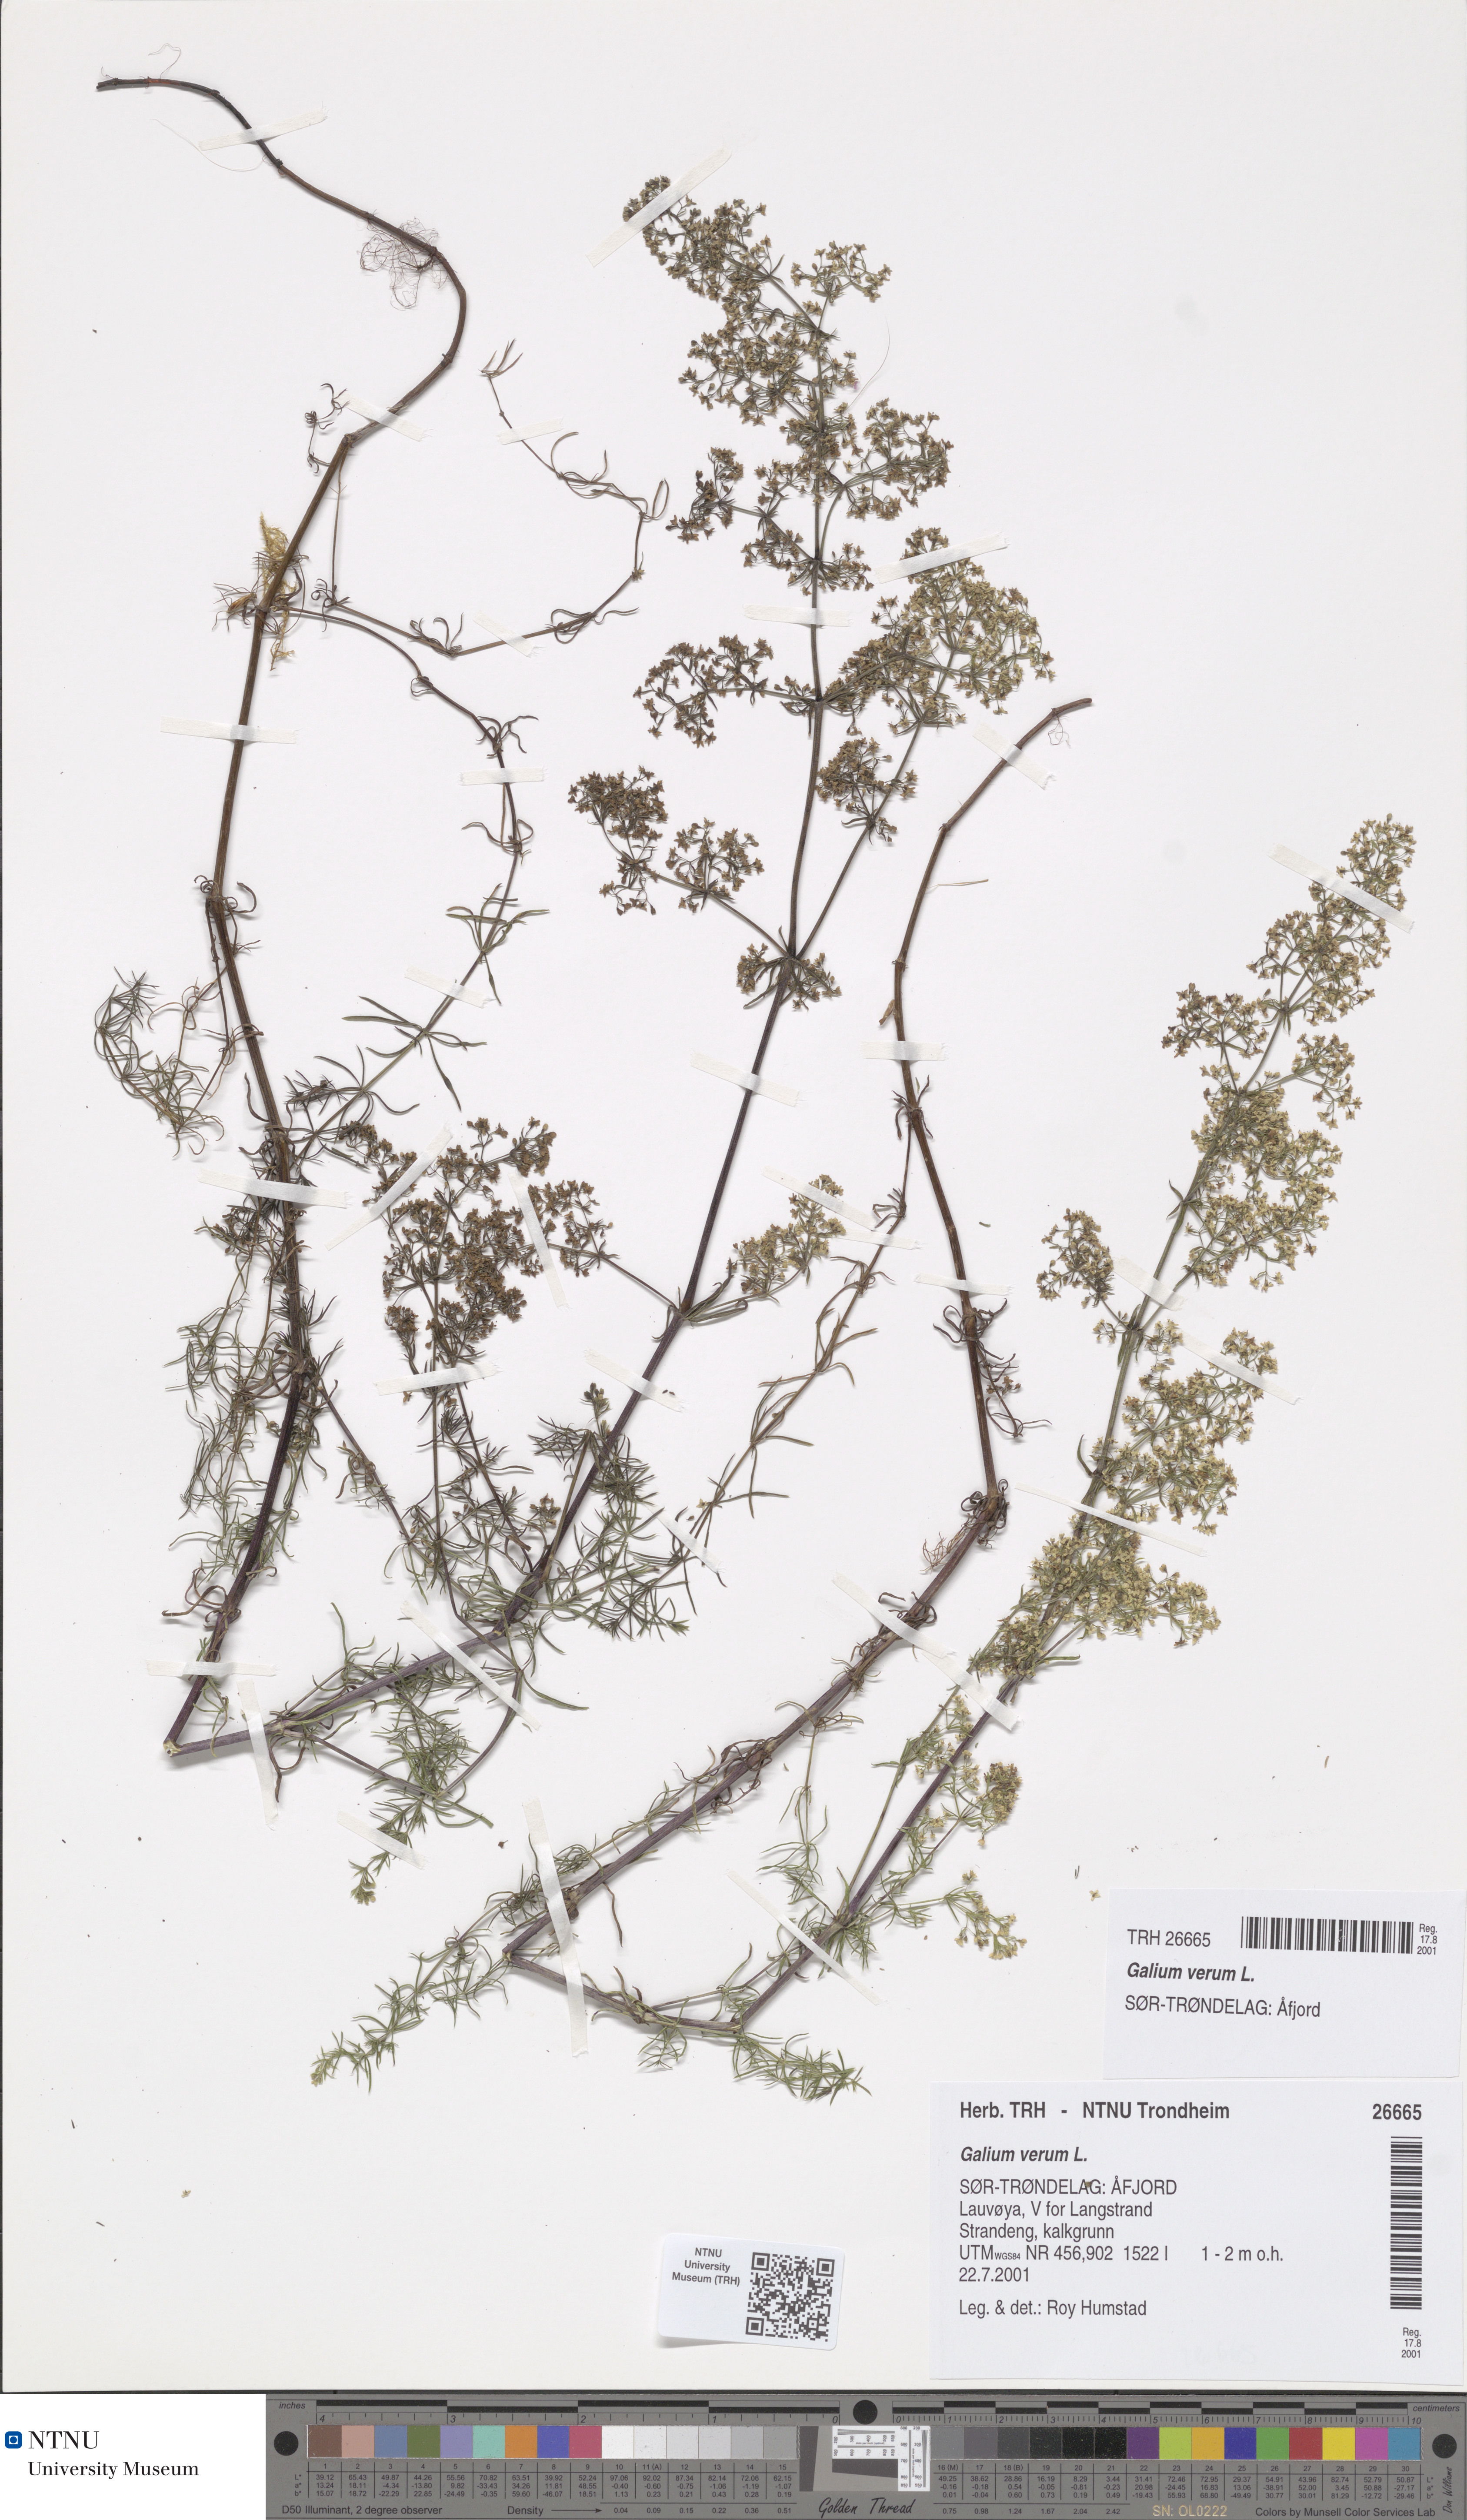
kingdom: Plantae
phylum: Tracheophyta
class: Magnoliopsida
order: Gentianales
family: Rubiaceae
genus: Galium
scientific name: Galium verum
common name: Lady's bedstraw
